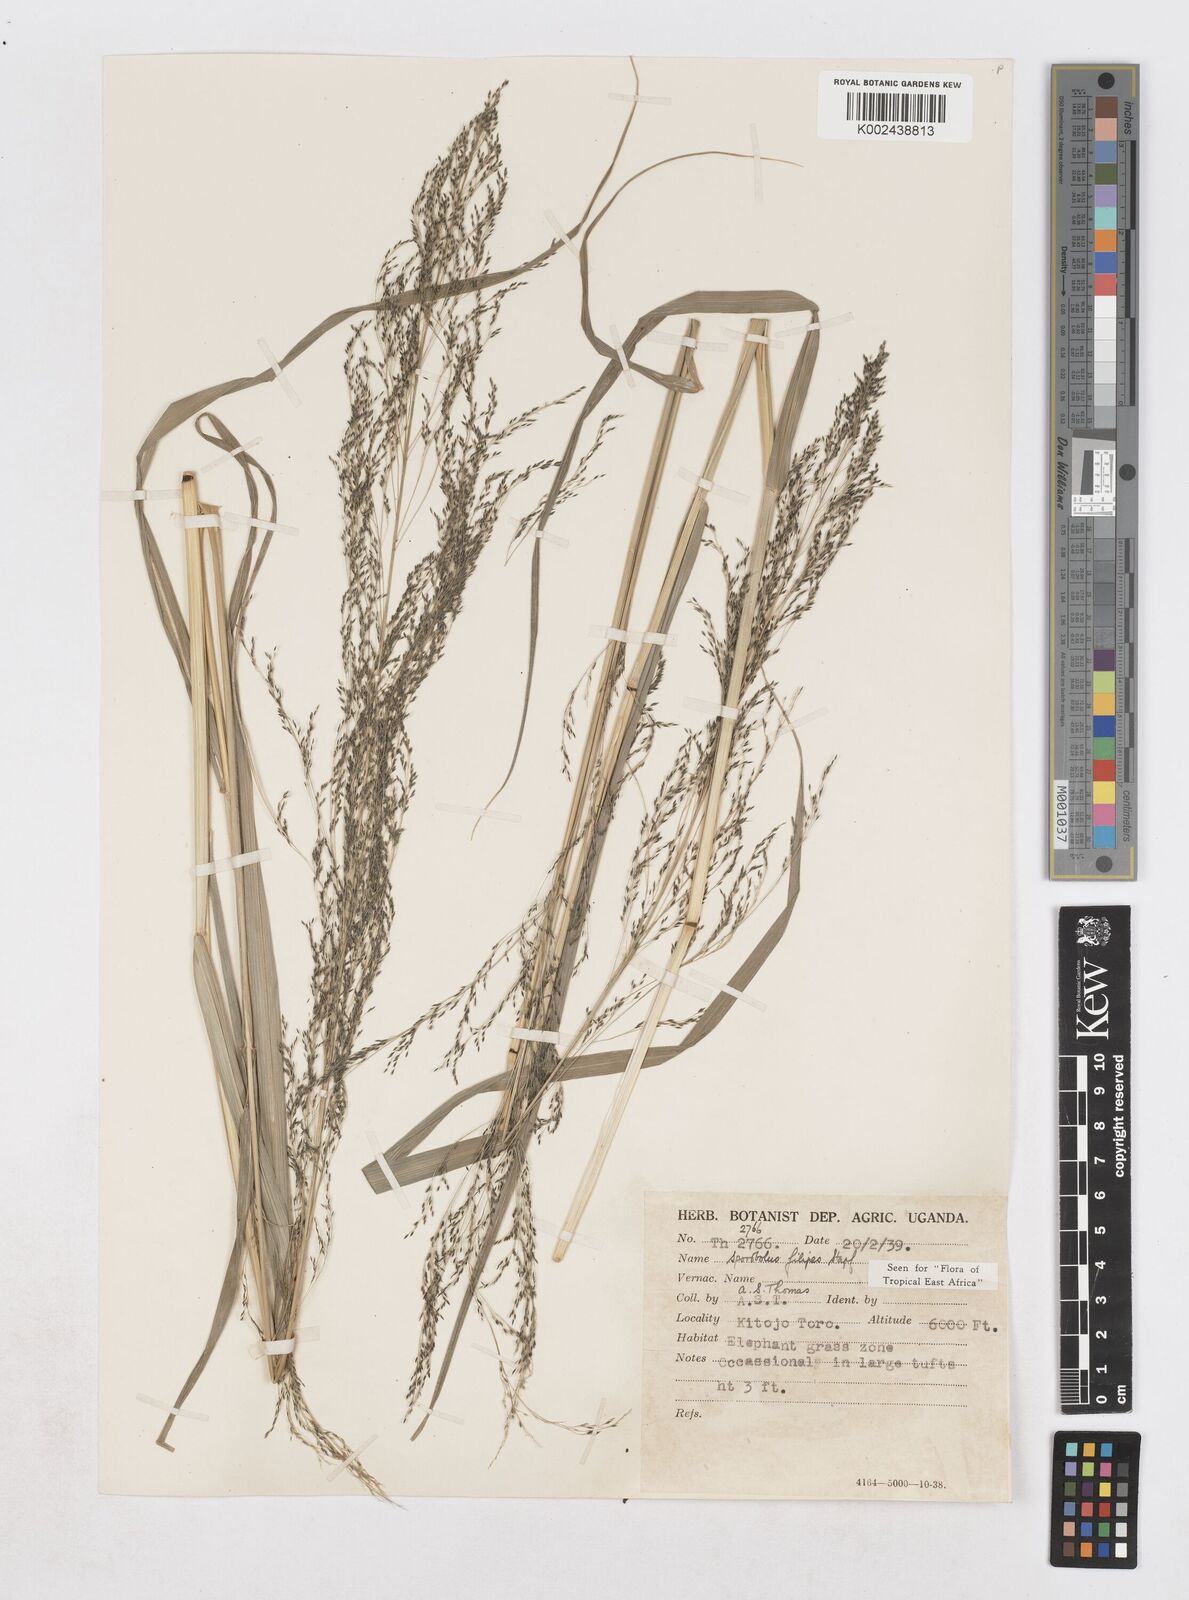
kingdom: Plantae
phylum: Tracheophyta
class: Liliopsida
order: Poales
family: Poaceae
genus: Sporobolus
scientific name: Sporobolus agrostoides
